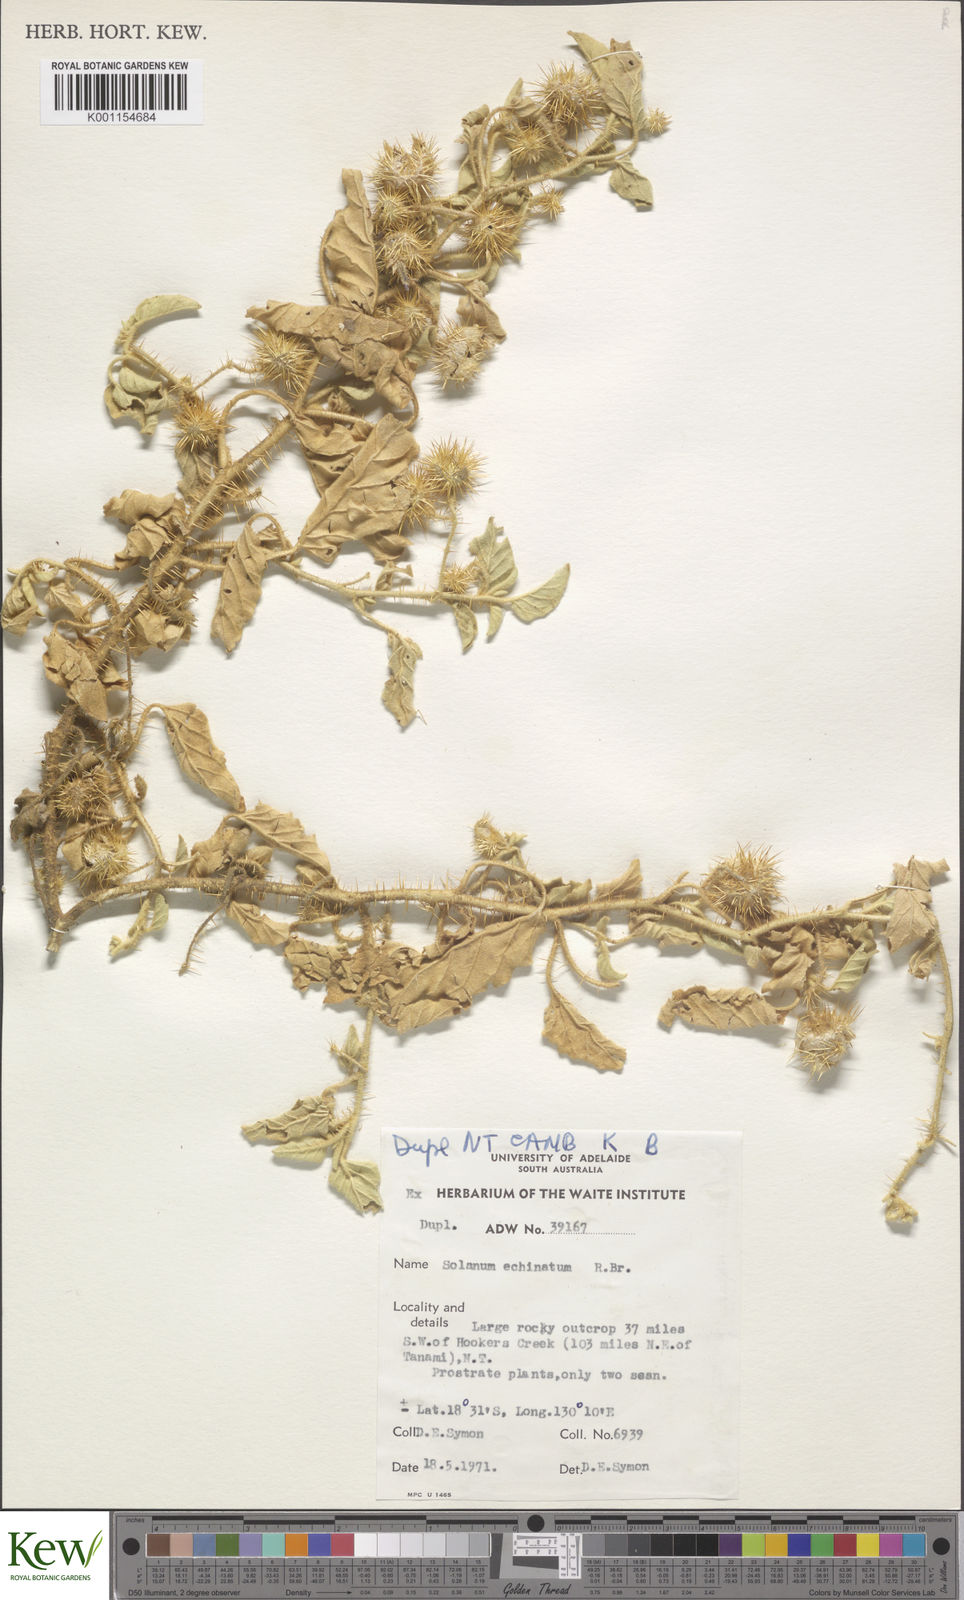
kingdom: Plantae
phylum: Tracheophyta
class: Magnoliopsida
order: Solanales
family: Solanaceae
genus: Solanum
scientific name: Solanum echinatum
